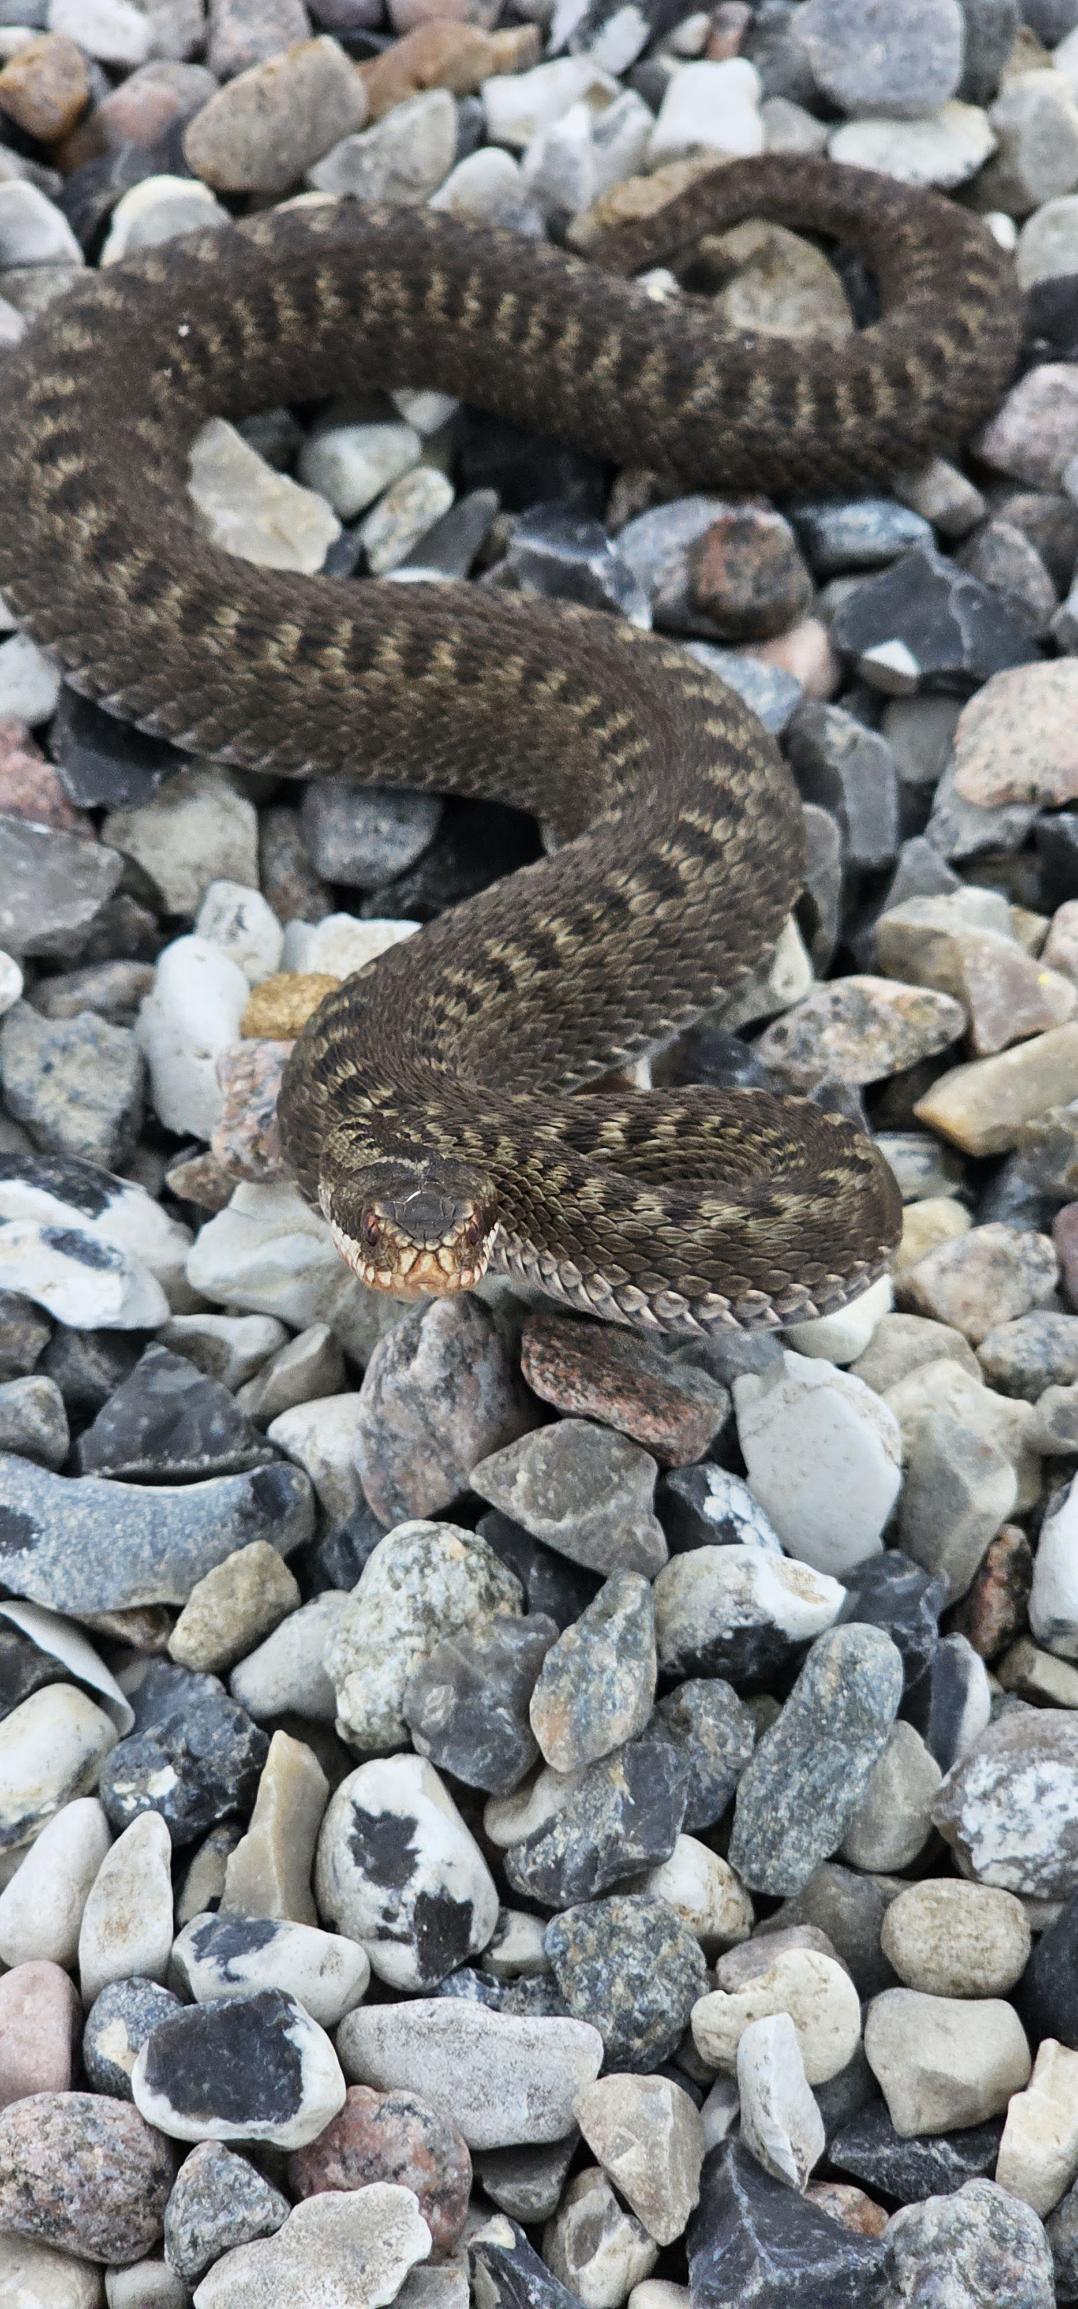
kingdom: Animalia
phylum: Chordata
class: Squamata
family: Viperidae
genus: Vipera
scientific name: Vipera berus
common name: Hugorm
